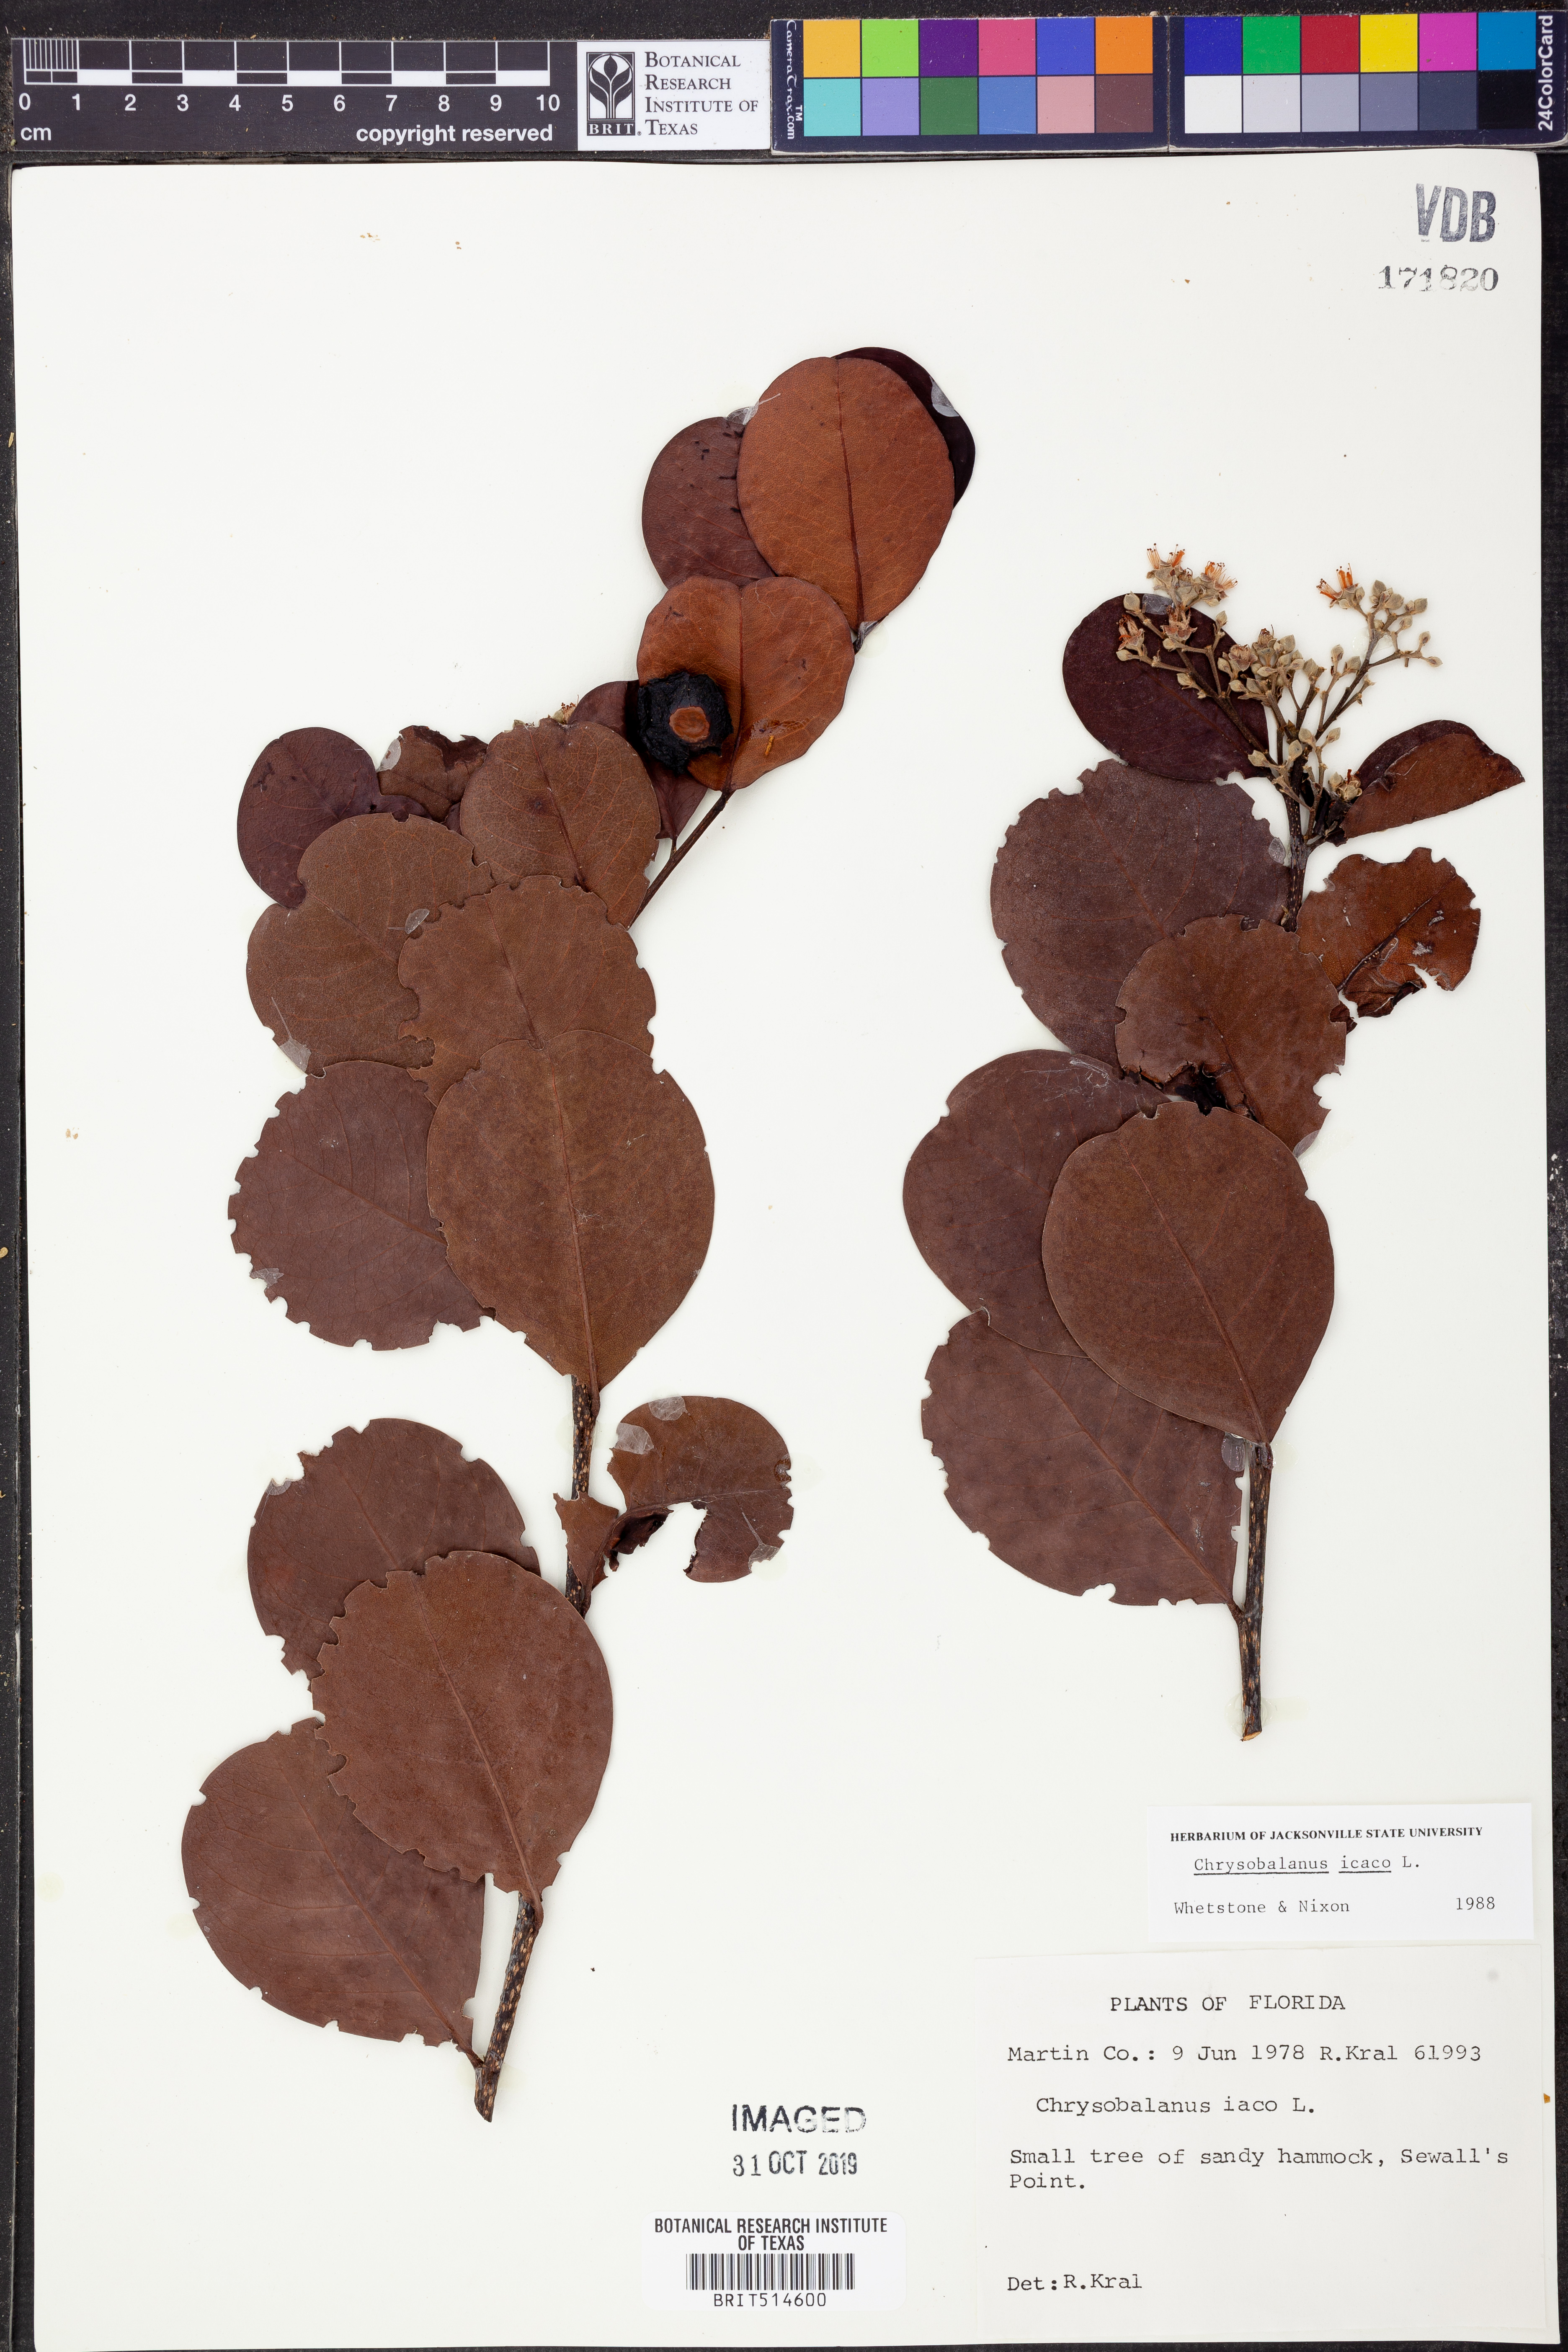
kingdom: Plantae
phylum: Tracheophyta
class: Magnoliopsida
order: Malpighiales
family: Chrysobalanaceae
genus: Chrysobalanus
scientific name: Chrysobalanus icaco
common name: Coco plum
